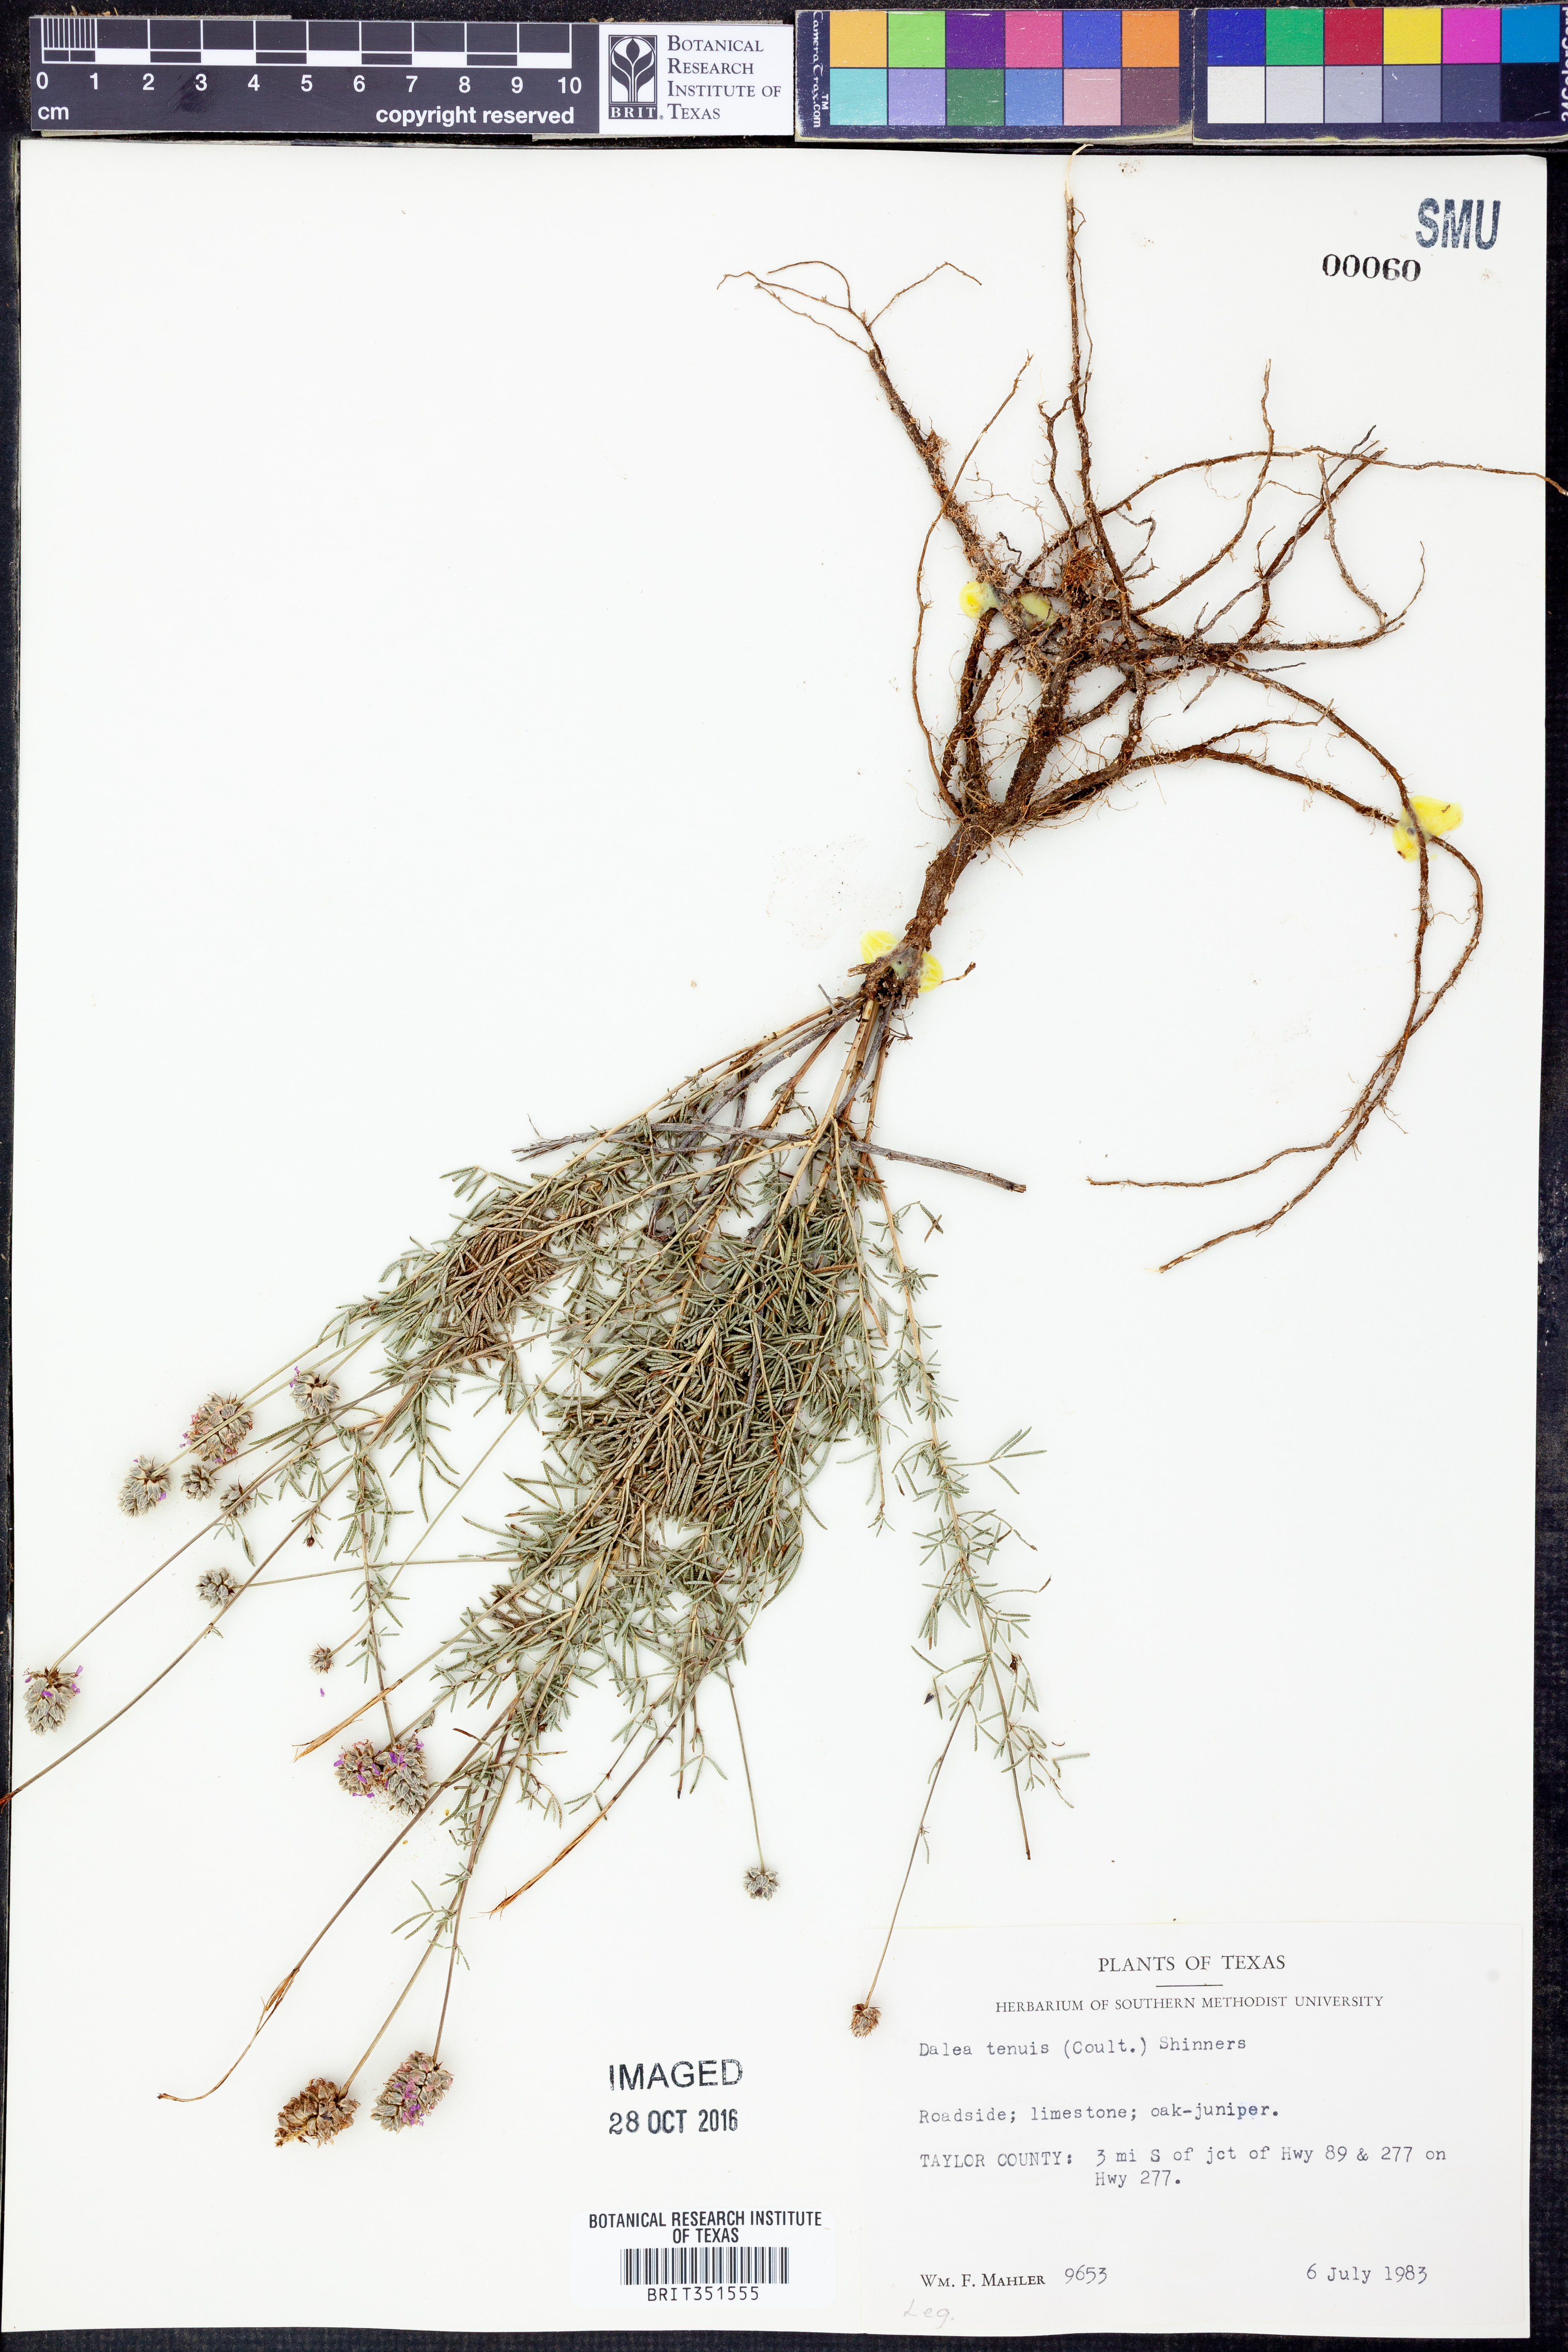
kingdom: Plantae
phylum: Tracheophyta
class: Magnoliopsida
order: Fabales
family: Fabaceae
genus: Dalea
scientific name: Dalea tenuis
